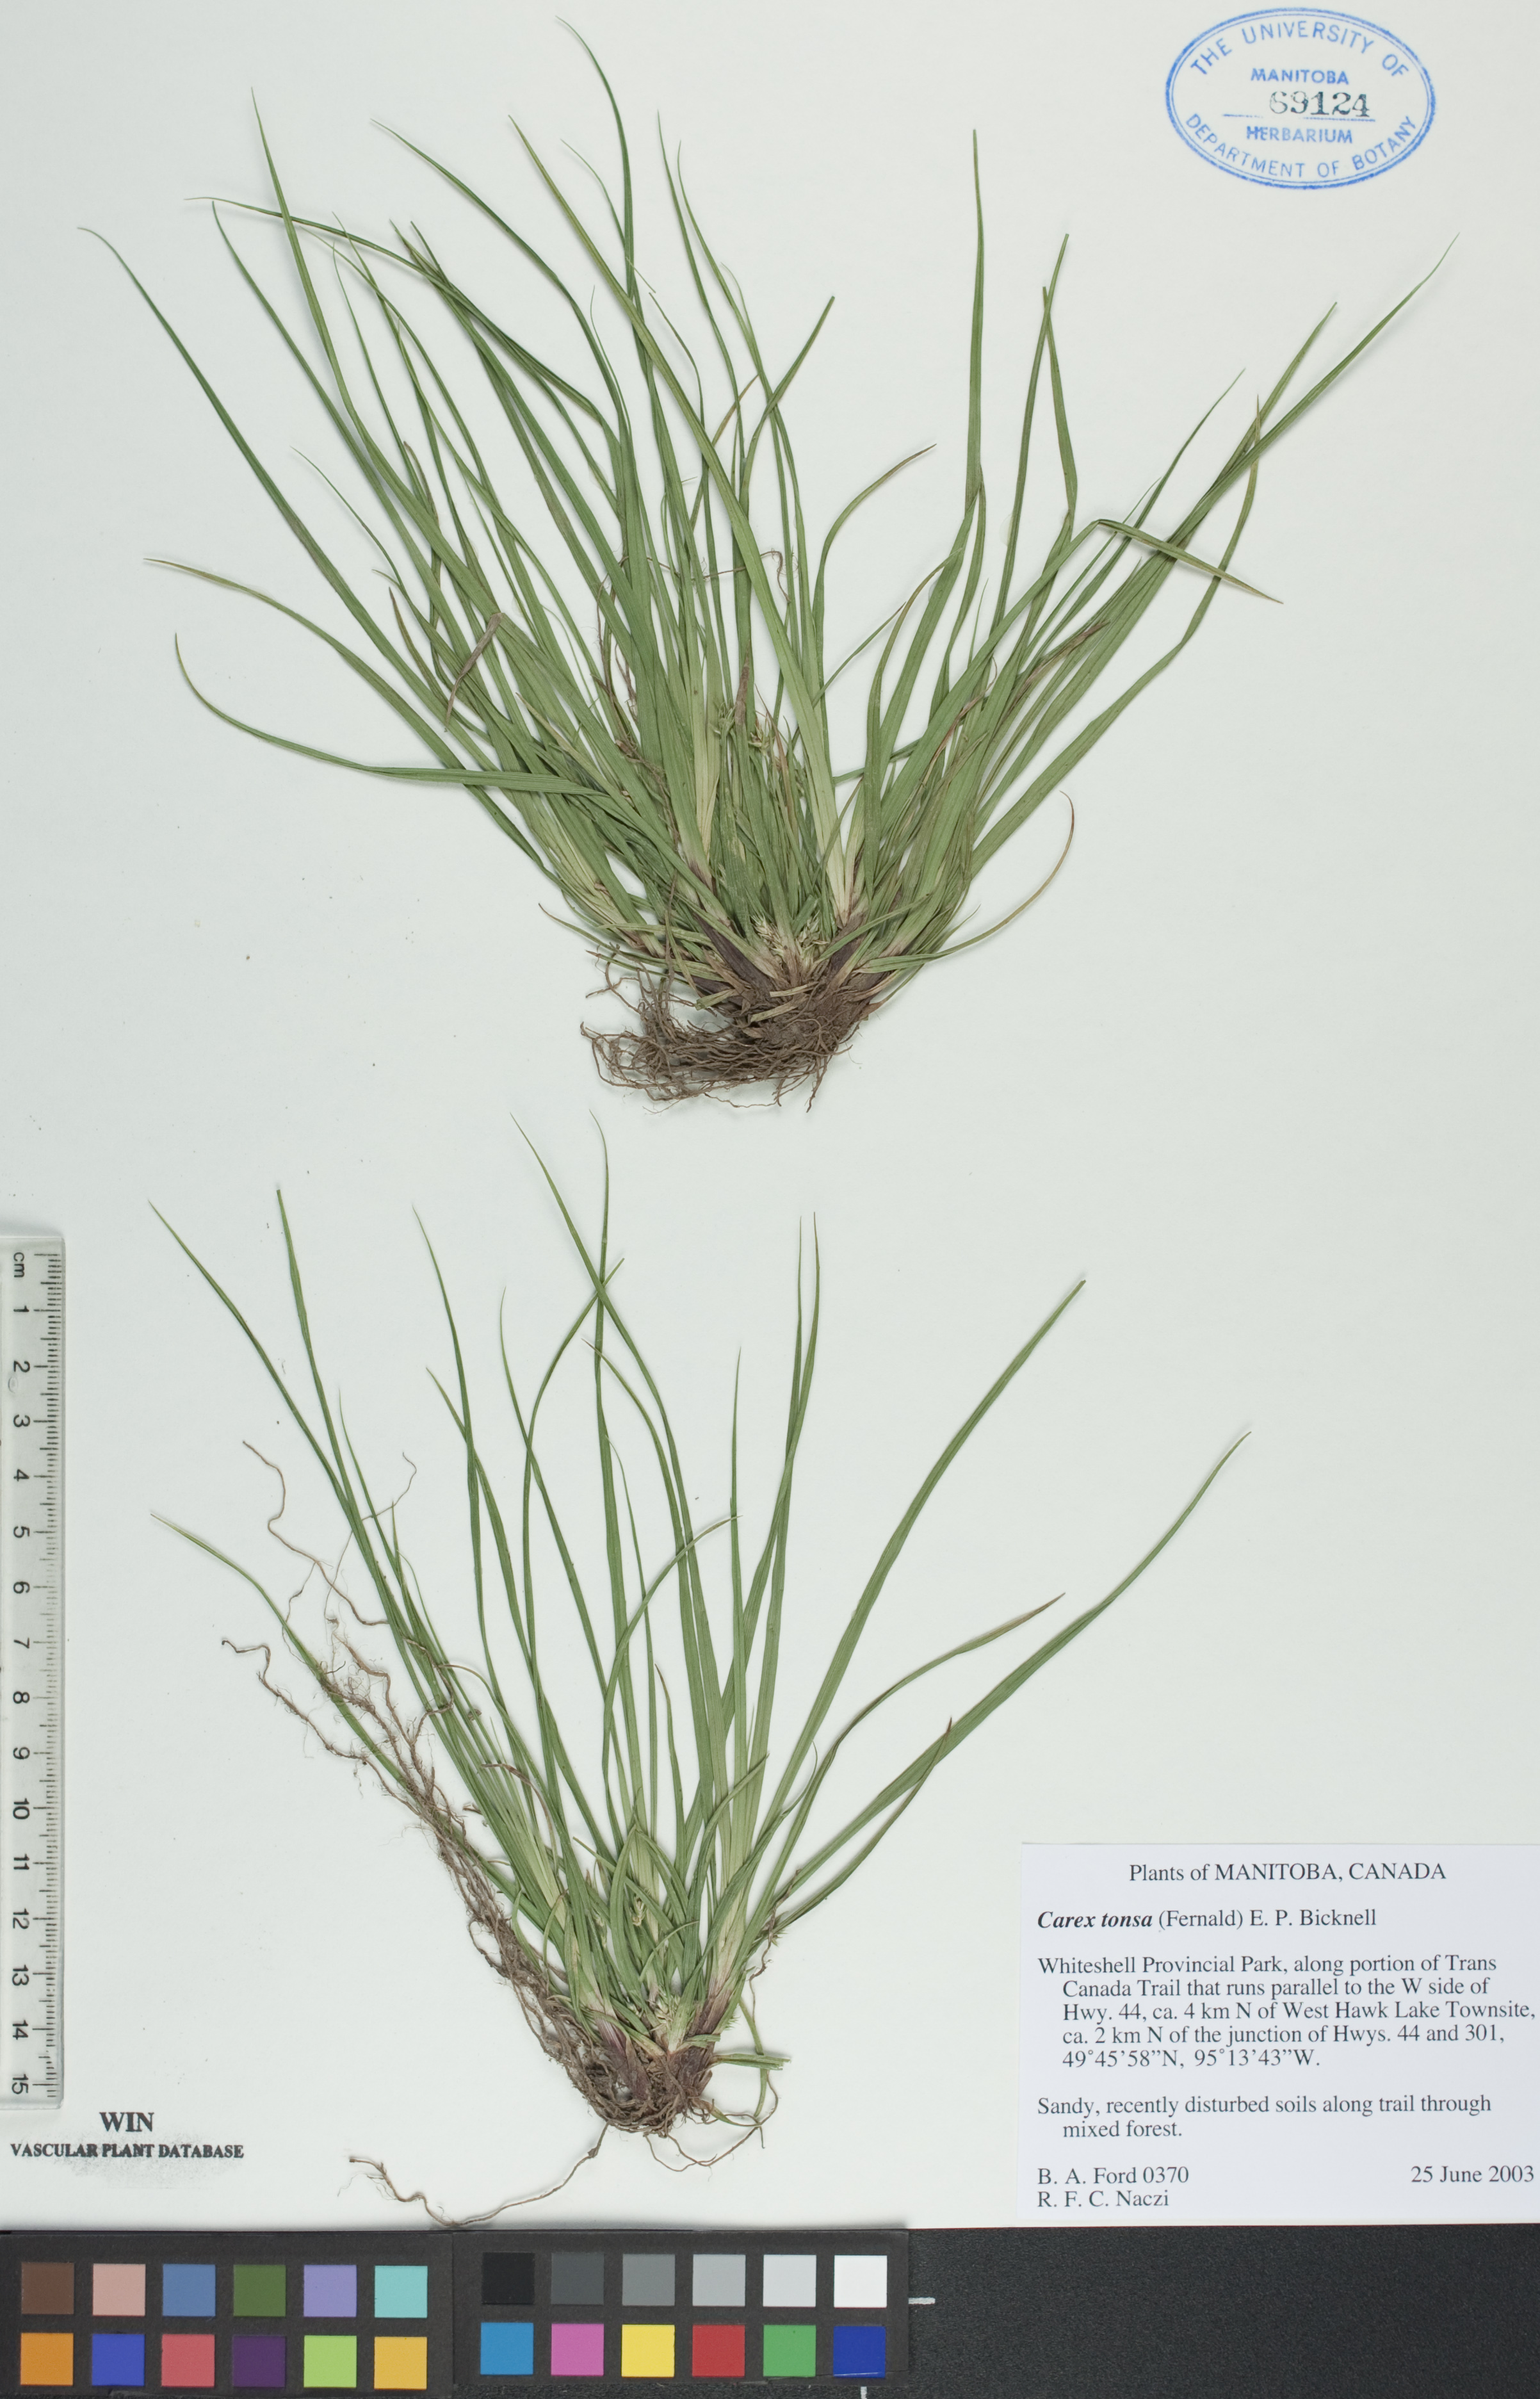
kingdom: Plantae
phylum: Tracheophyta
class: Liliopsida
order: Poales
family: Cyperaceae
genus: Carex
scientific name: Carex tonsa
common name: Bald sedge
